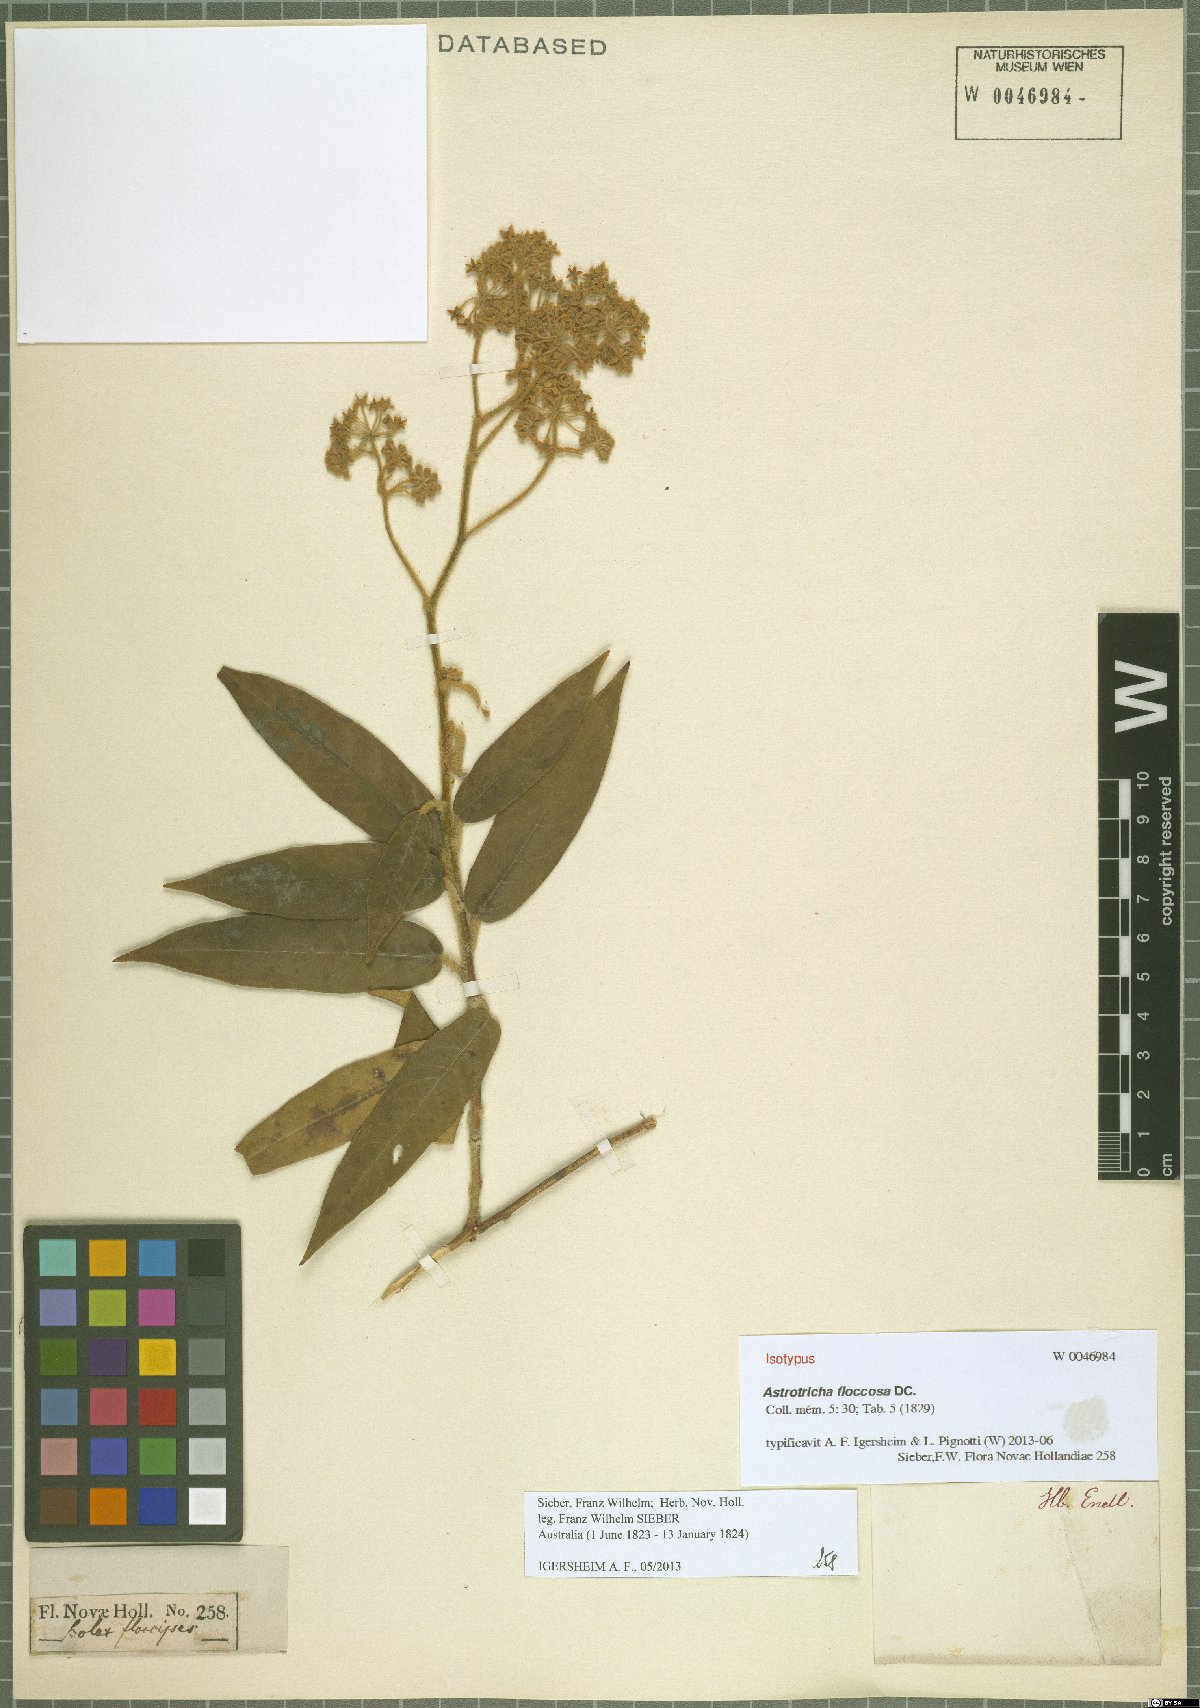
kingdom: Plantae
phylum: Tracheophyta
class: Magnoliopsida
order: Apiales
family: Araliaceae
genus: Astrotricha
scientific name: Astrotricha floccosa
